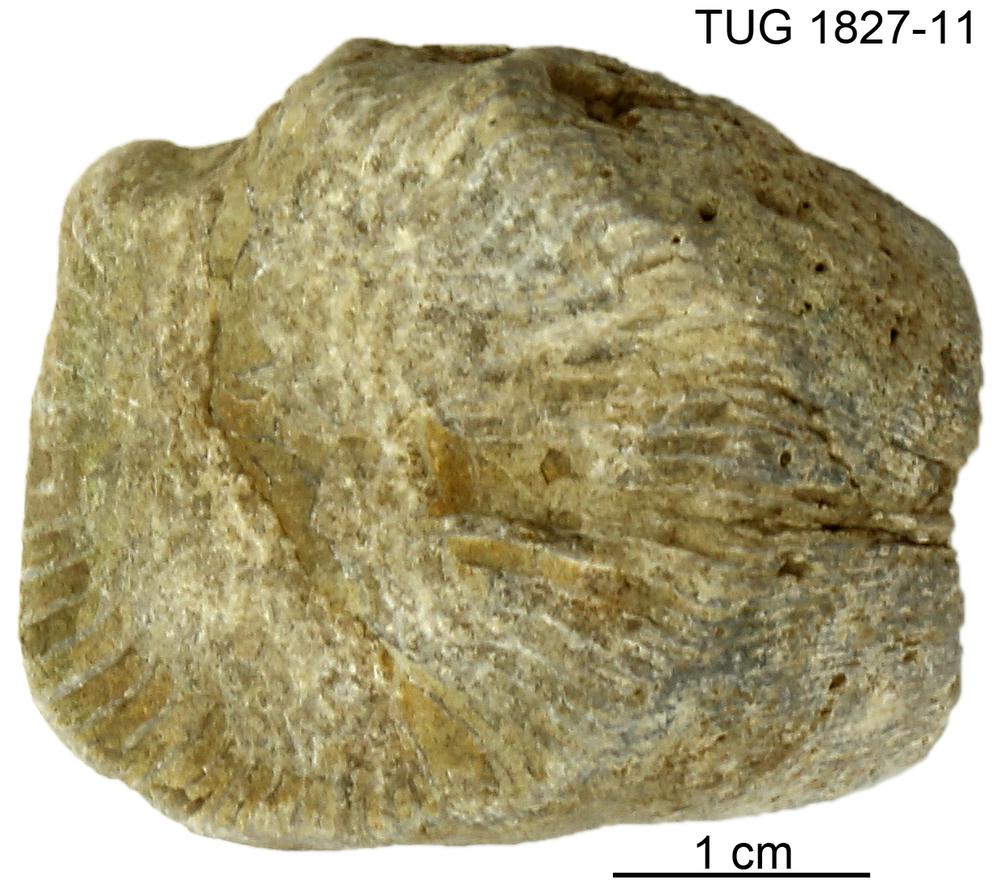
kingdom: Animalia
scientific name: Animalia
